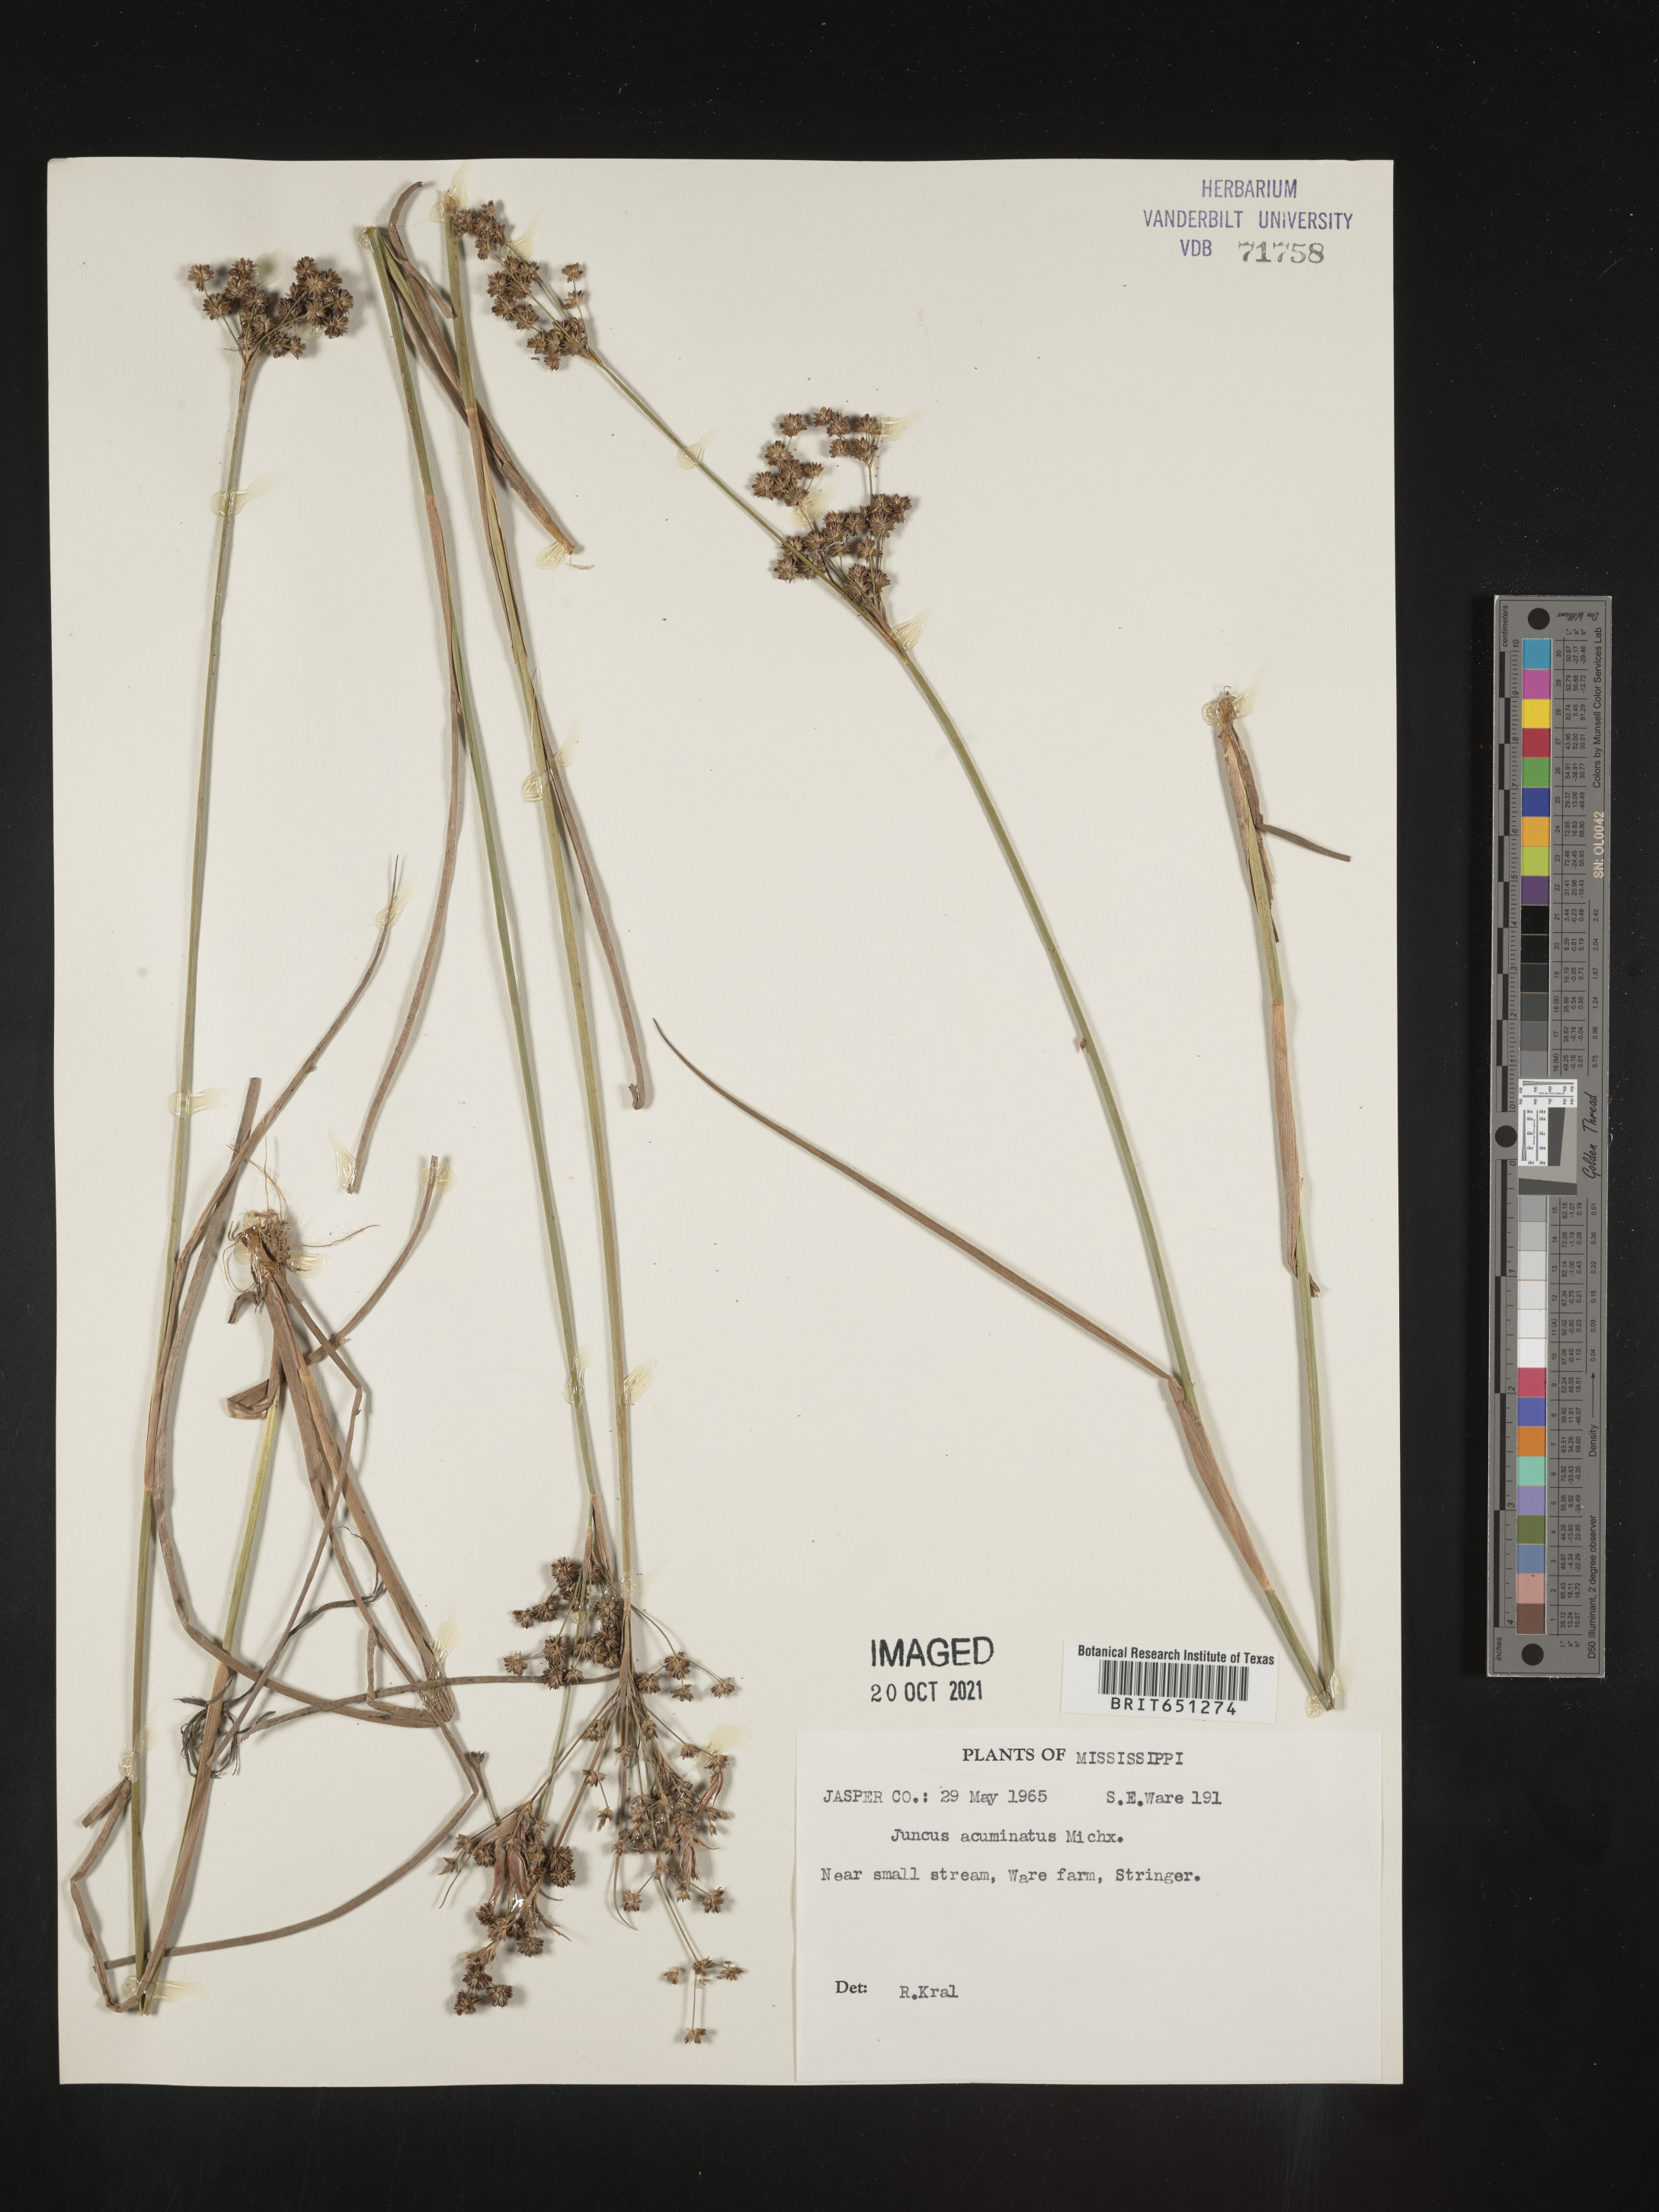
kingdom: Plantae
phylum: Tracheophyta
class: Liliopsida
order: Poales
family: Juncaceae
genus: Juncus
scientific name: Juncus acuminatus
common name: Knotty-leaved rush
